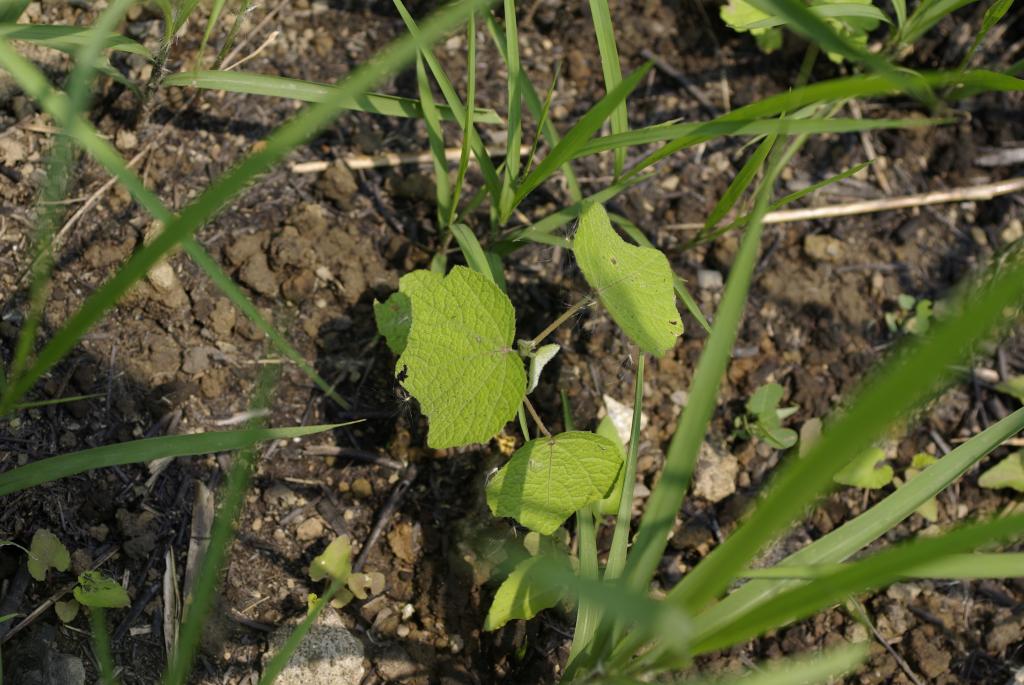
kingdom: Plantae
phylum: Tracheophyta
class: Magnoliopsida
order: Malvales
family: Malvaceae
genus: Urena
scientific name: Urena lobata
